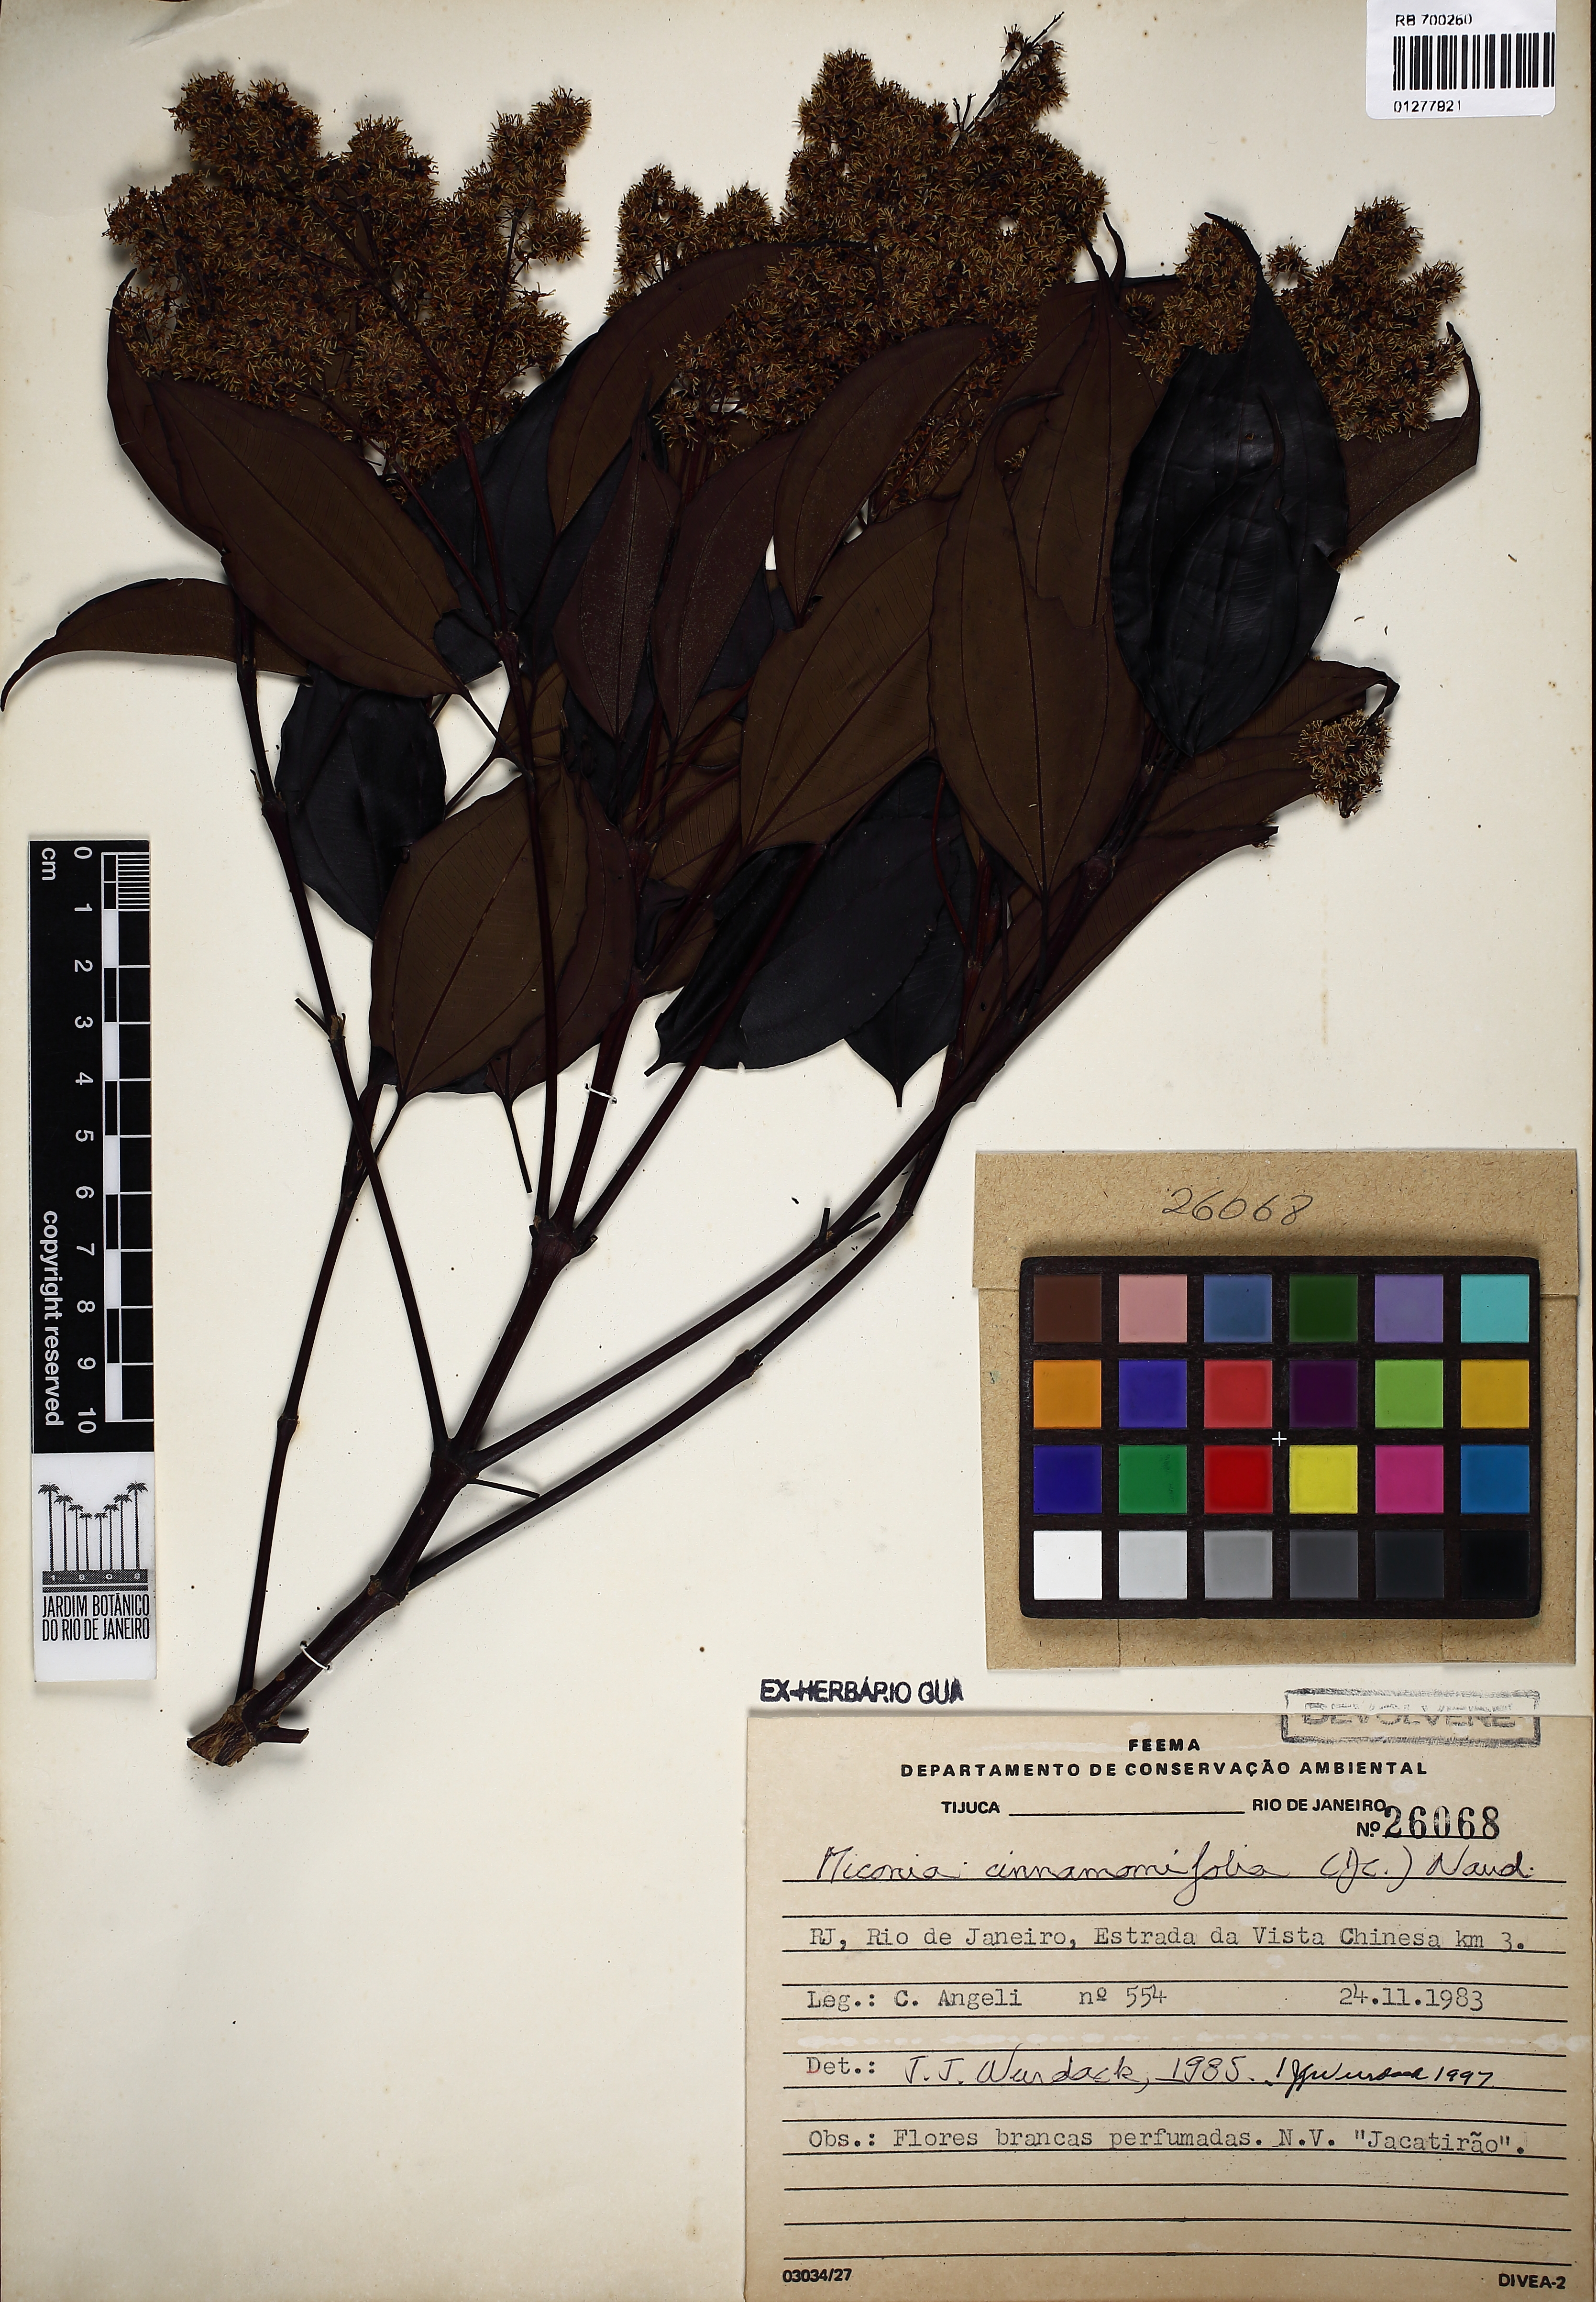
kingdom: Plantae
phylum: Tracheophyta
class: Magnoliopsida
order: Myrtales
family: Melastomataceae
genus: Miconia
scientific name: Miconia cinnamomifolia
